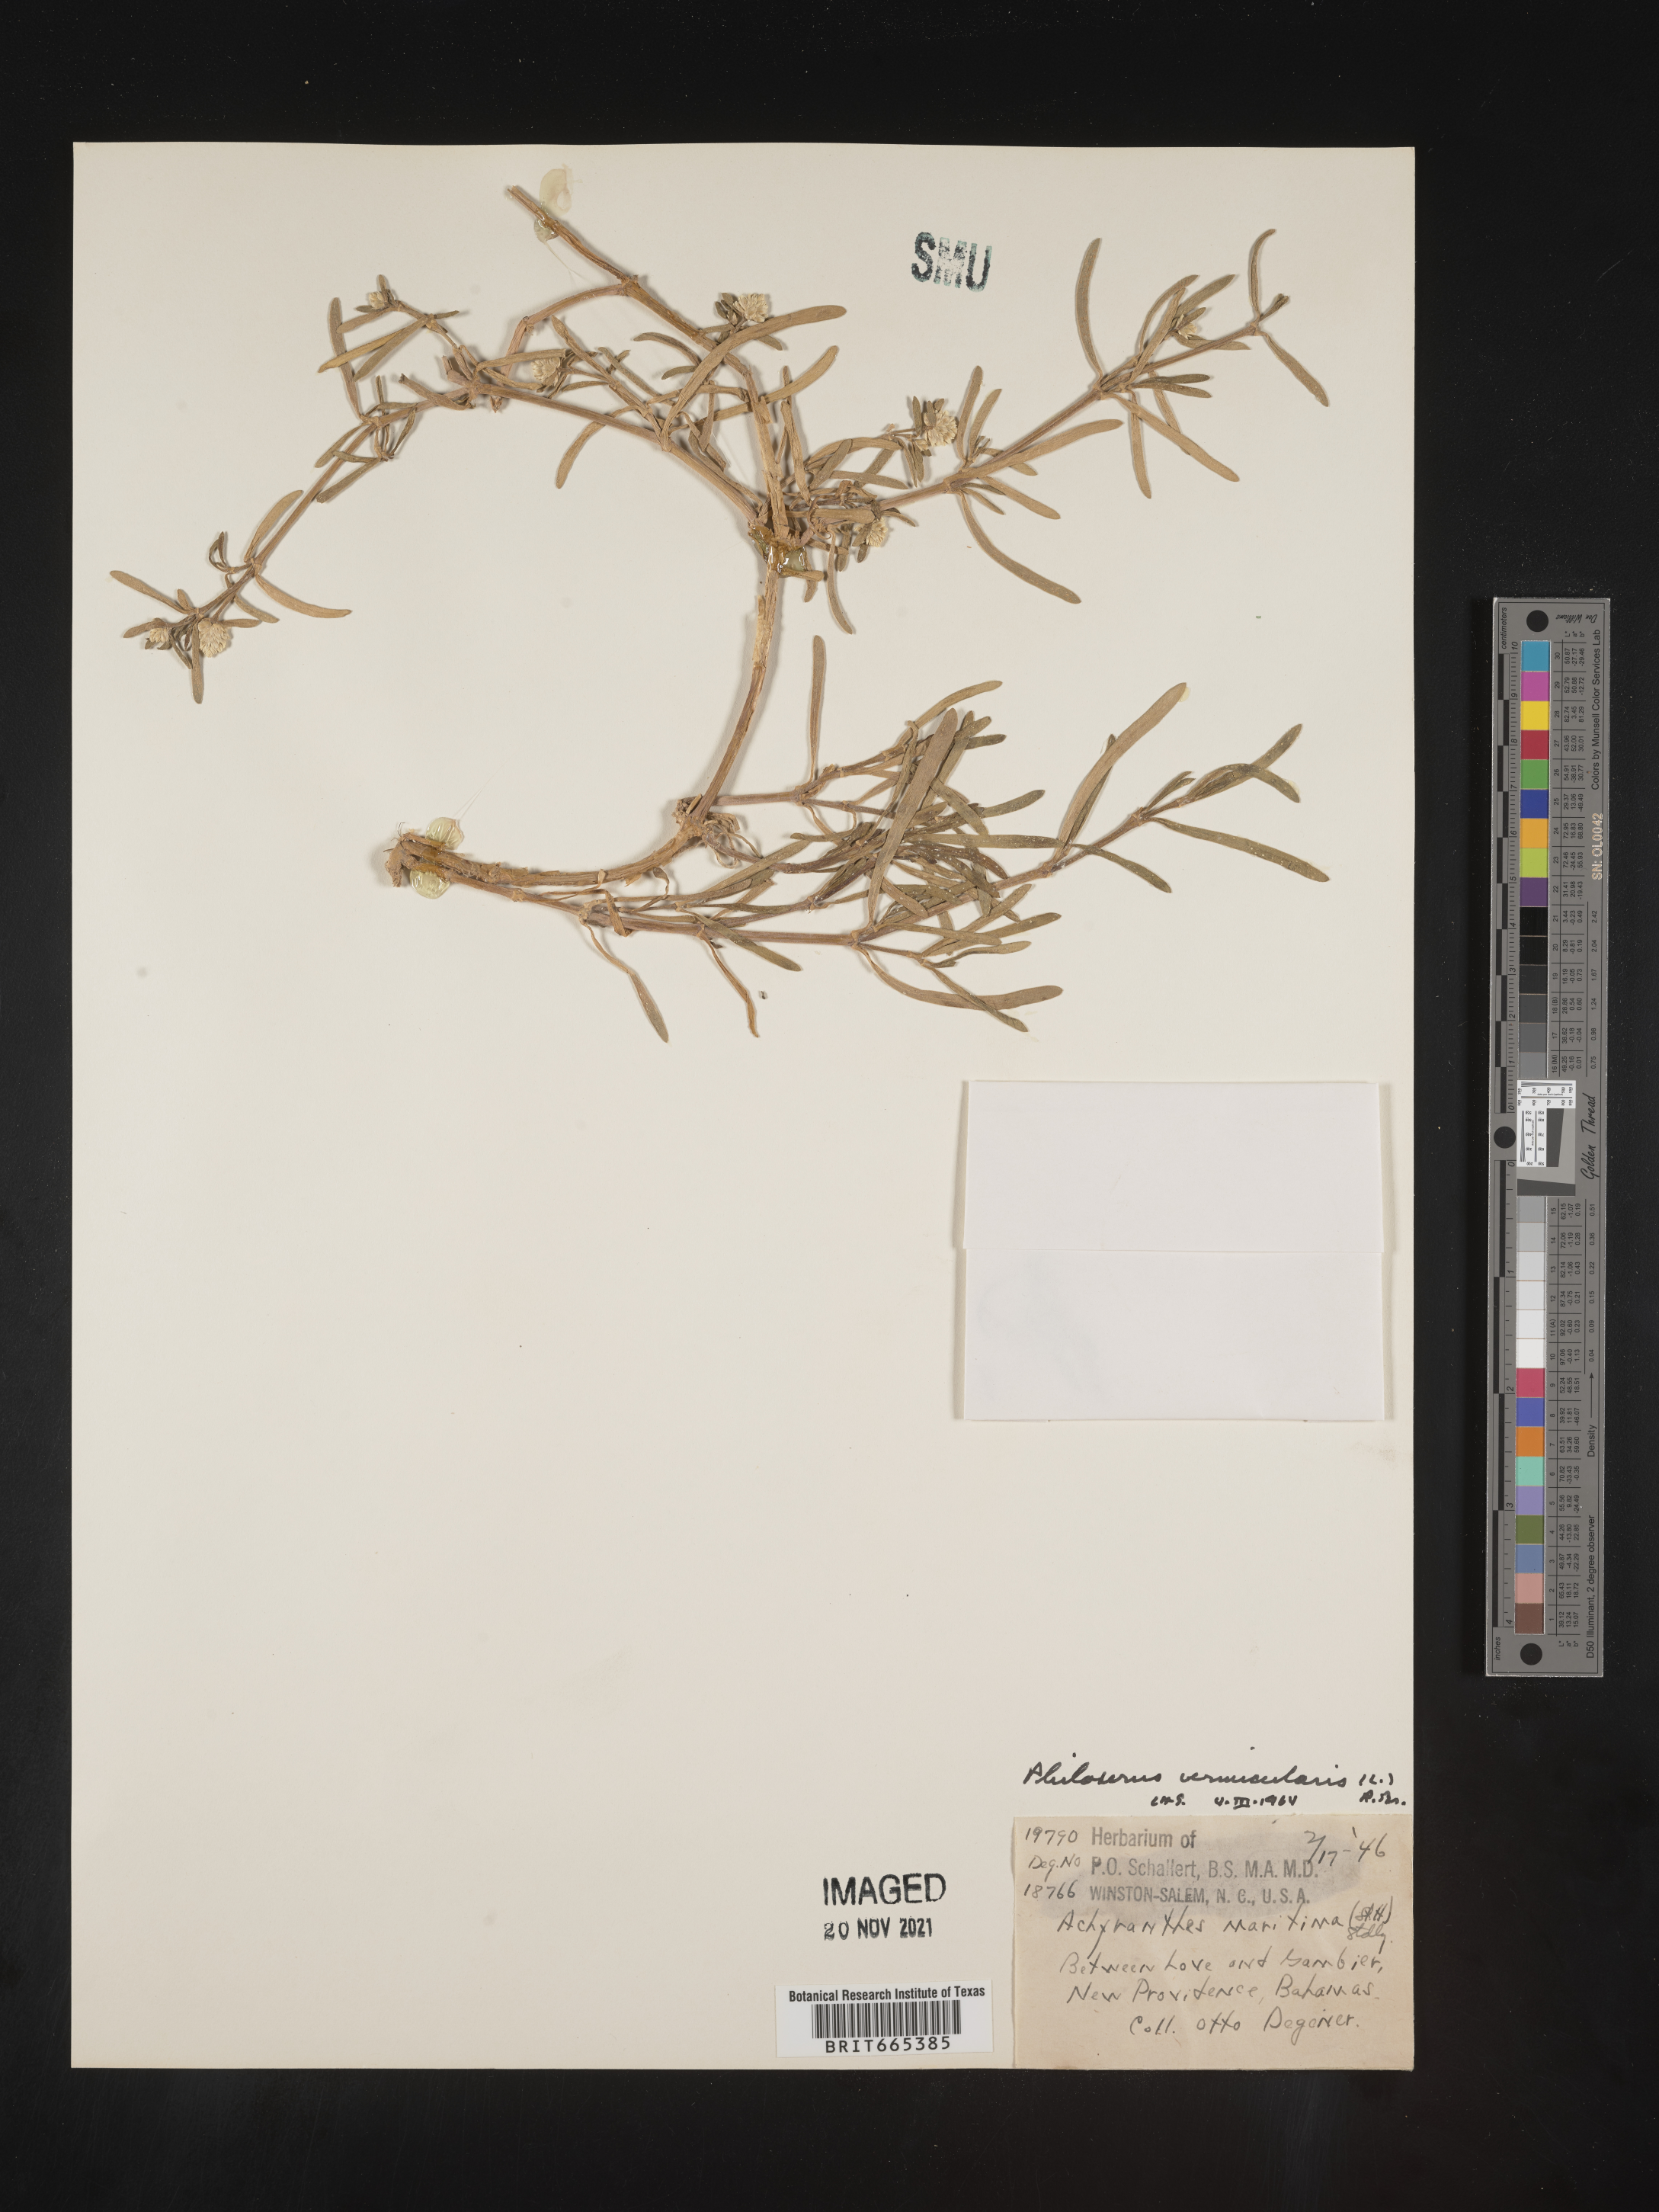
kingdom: Plantae
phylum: Tracheophyta
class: Magnoliopsida
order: Caryophyllales
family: Amaranthaceae
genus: Gomphrena
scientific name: Gomphrena
